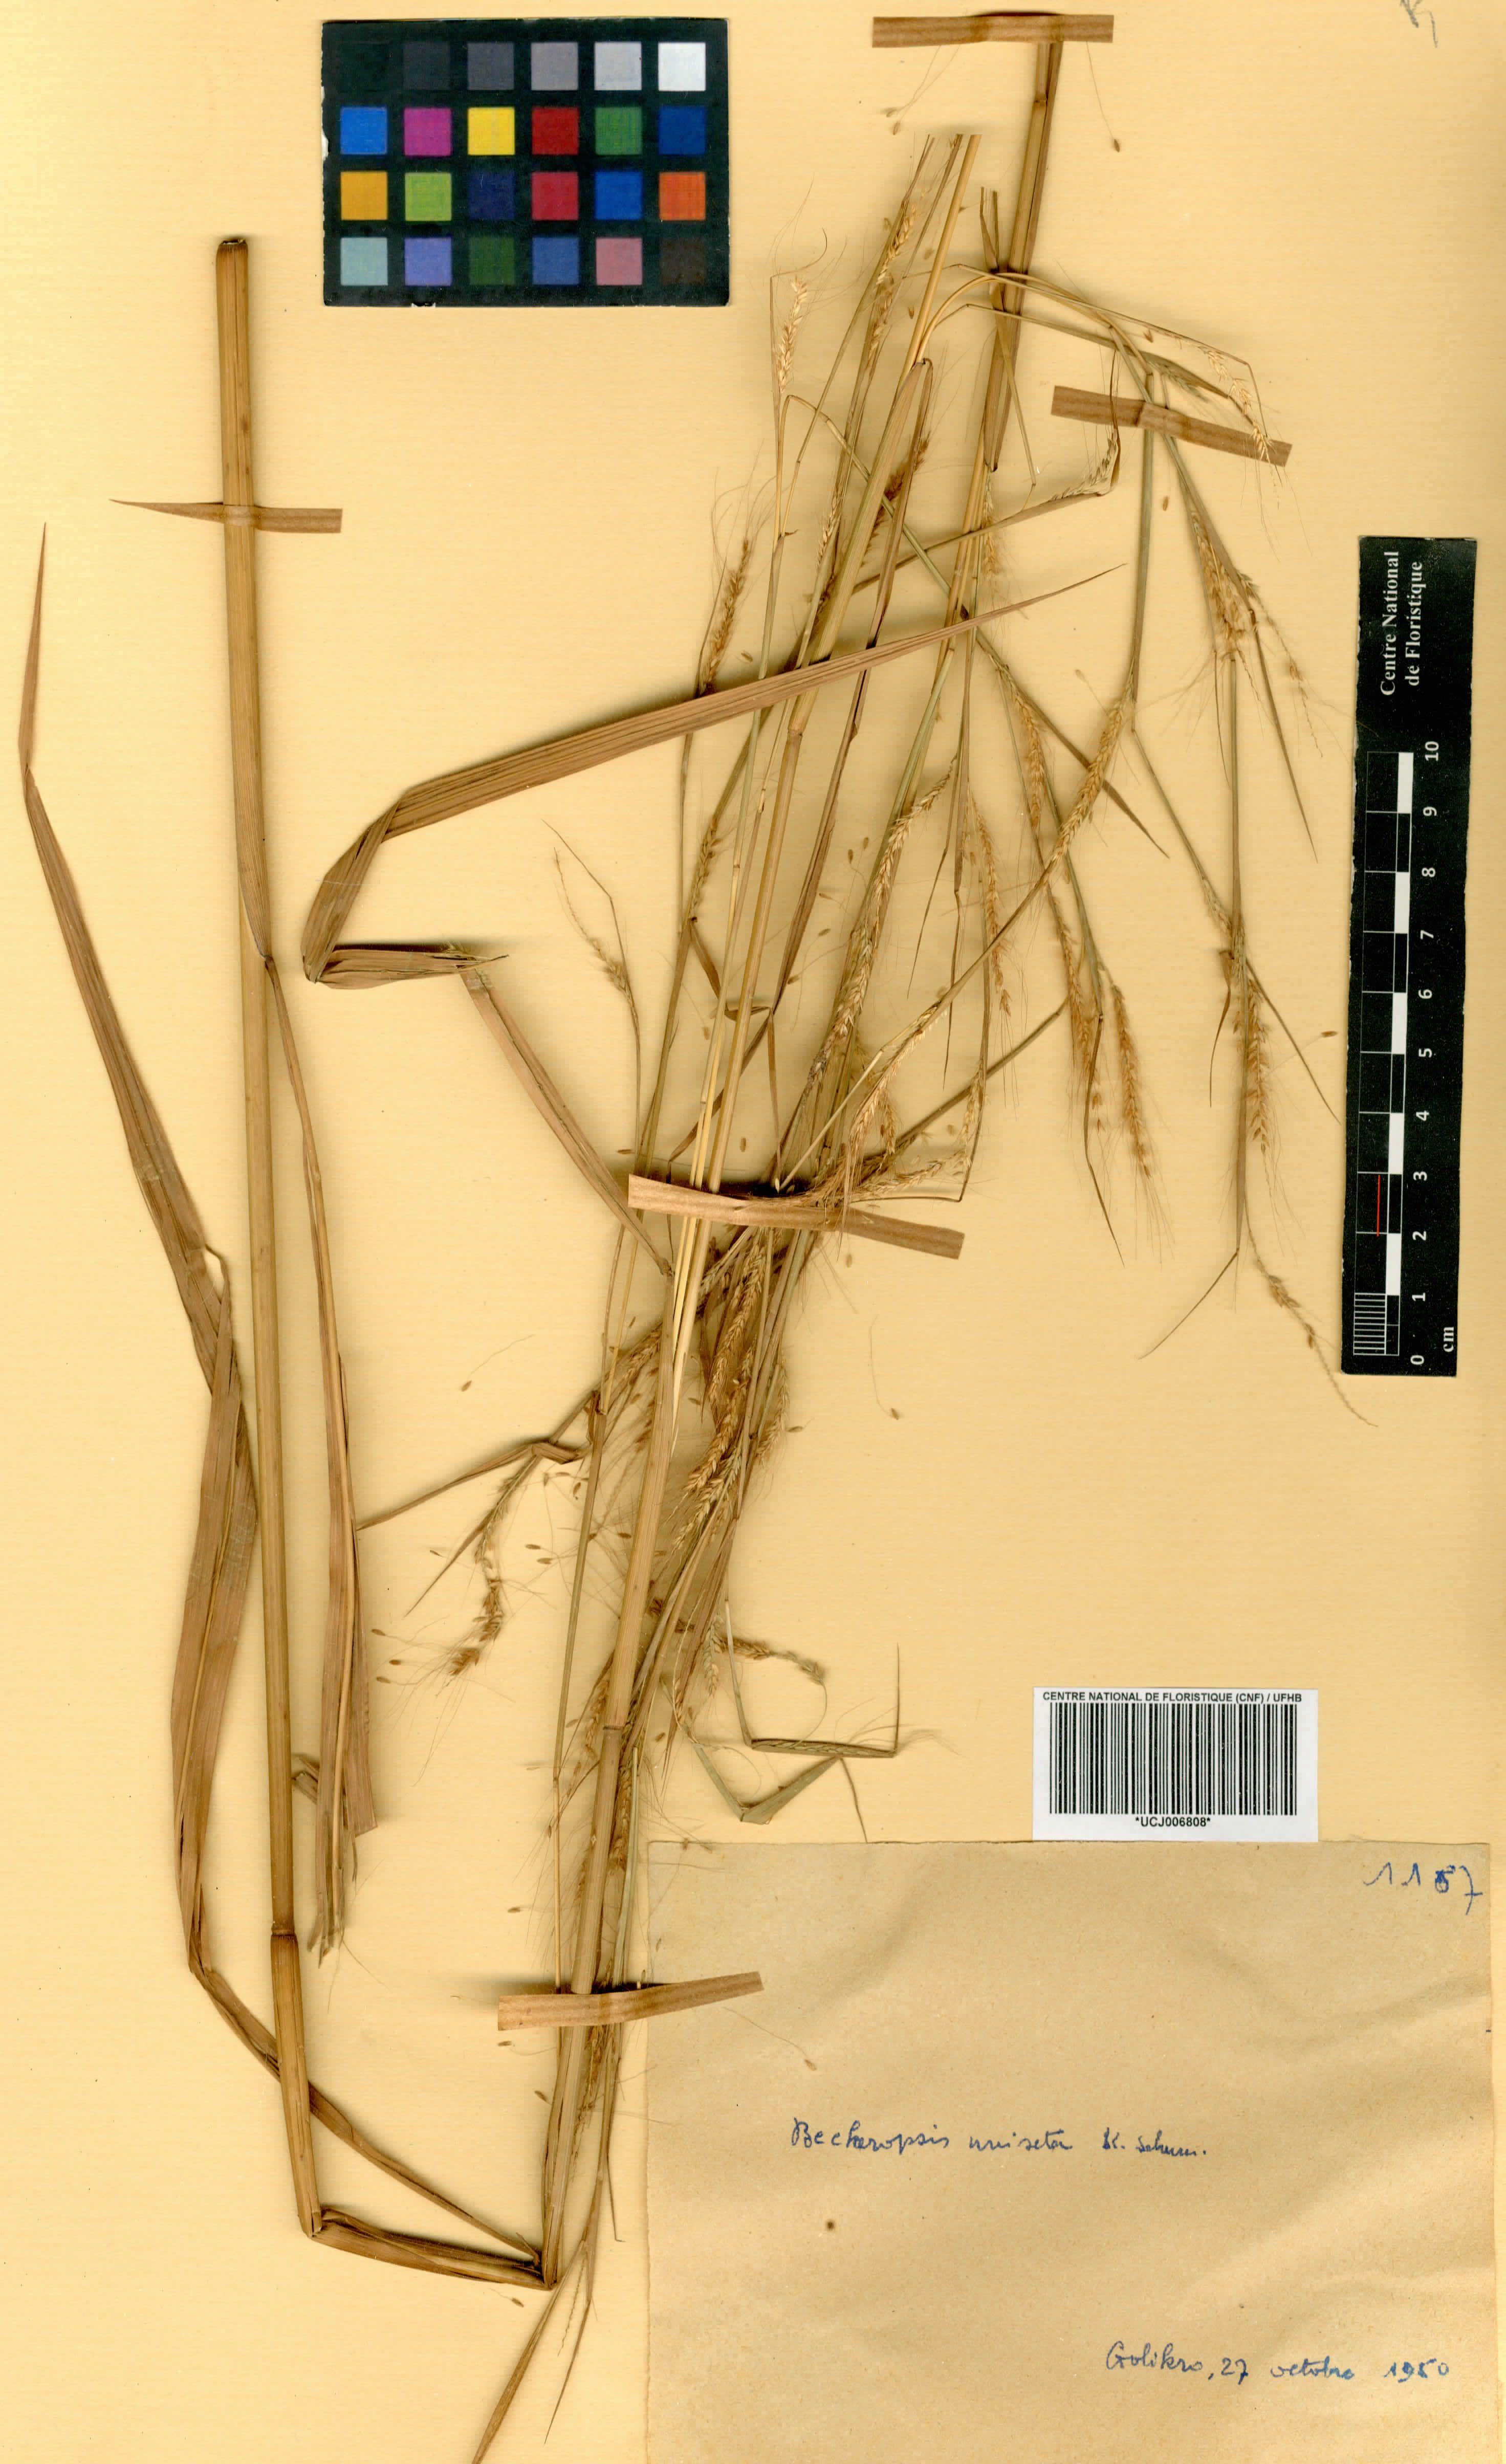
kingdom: Plantae
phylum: Tracheophyta
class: Liliopsida
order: Poales
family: Poaceae
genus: Cenchrus
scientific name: Cenchrus unisetus
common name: Natal grass
